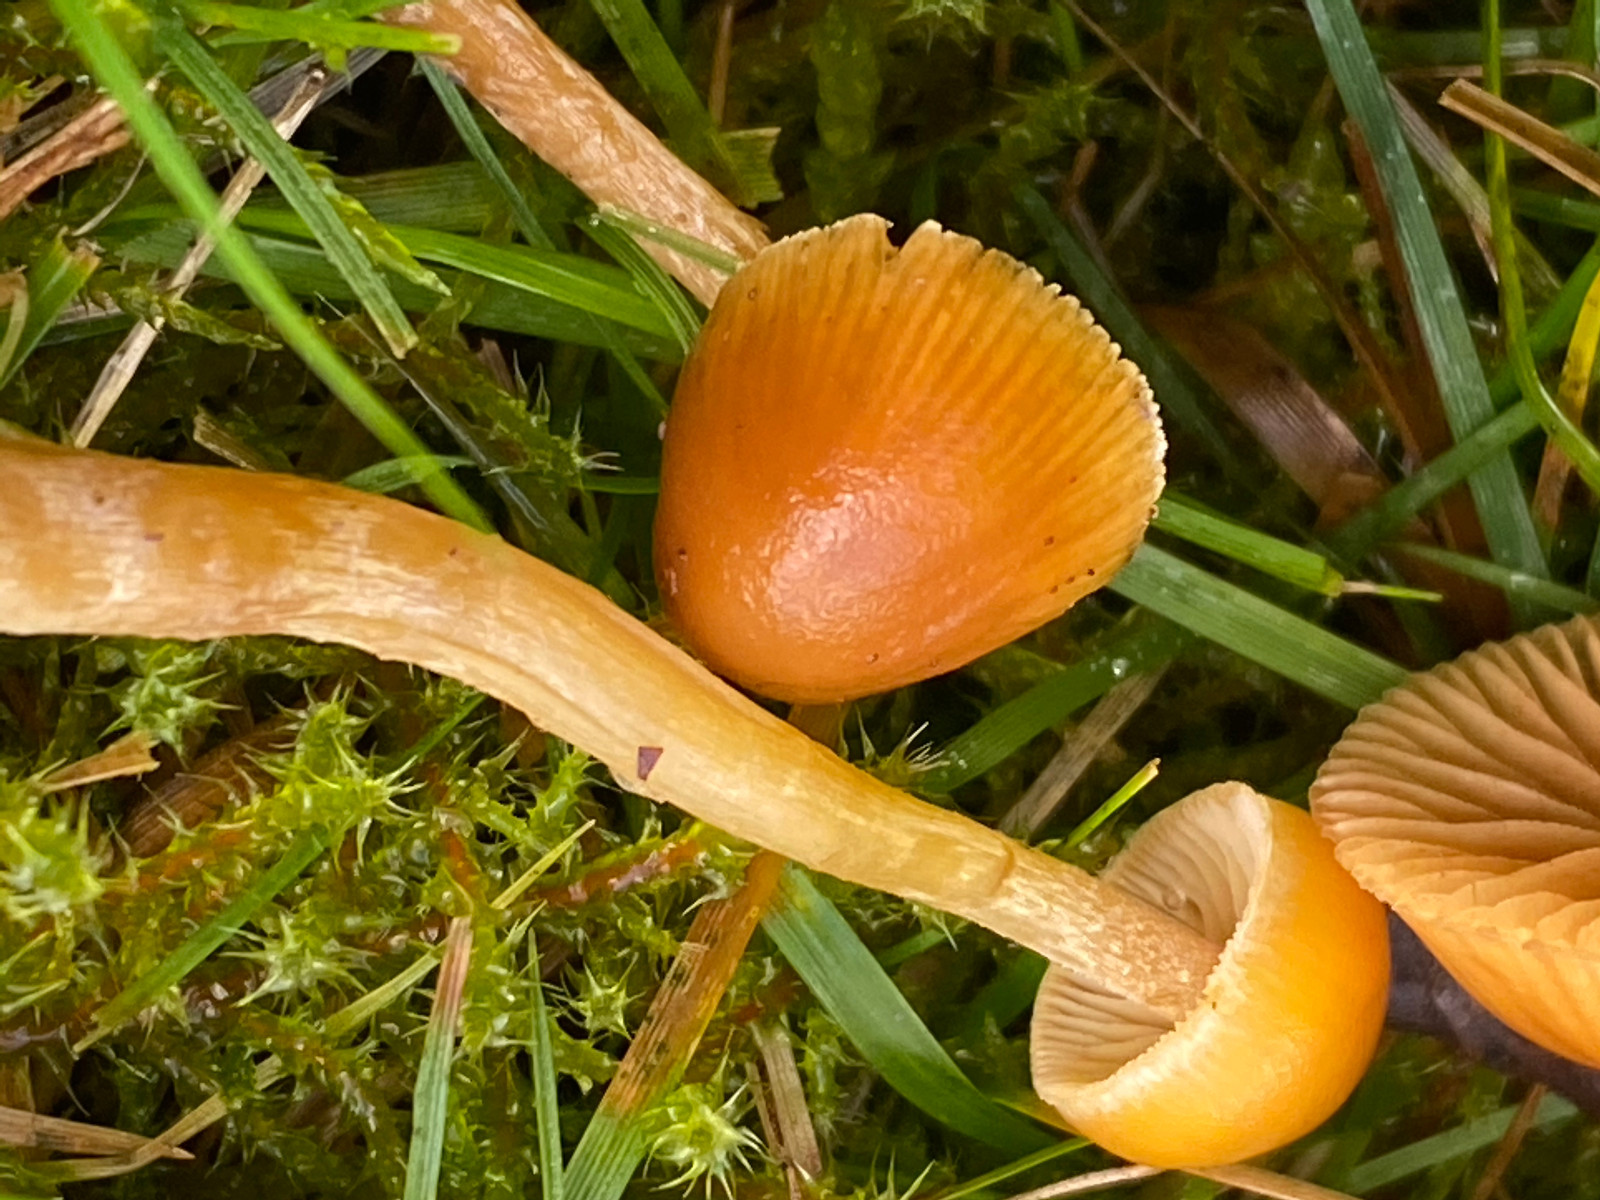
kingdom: Fungi
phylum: Basidiomycota
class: Agaricomycetes
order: Agaricales
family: Hymenogastraceae
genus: Galerina
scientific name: Galerina
